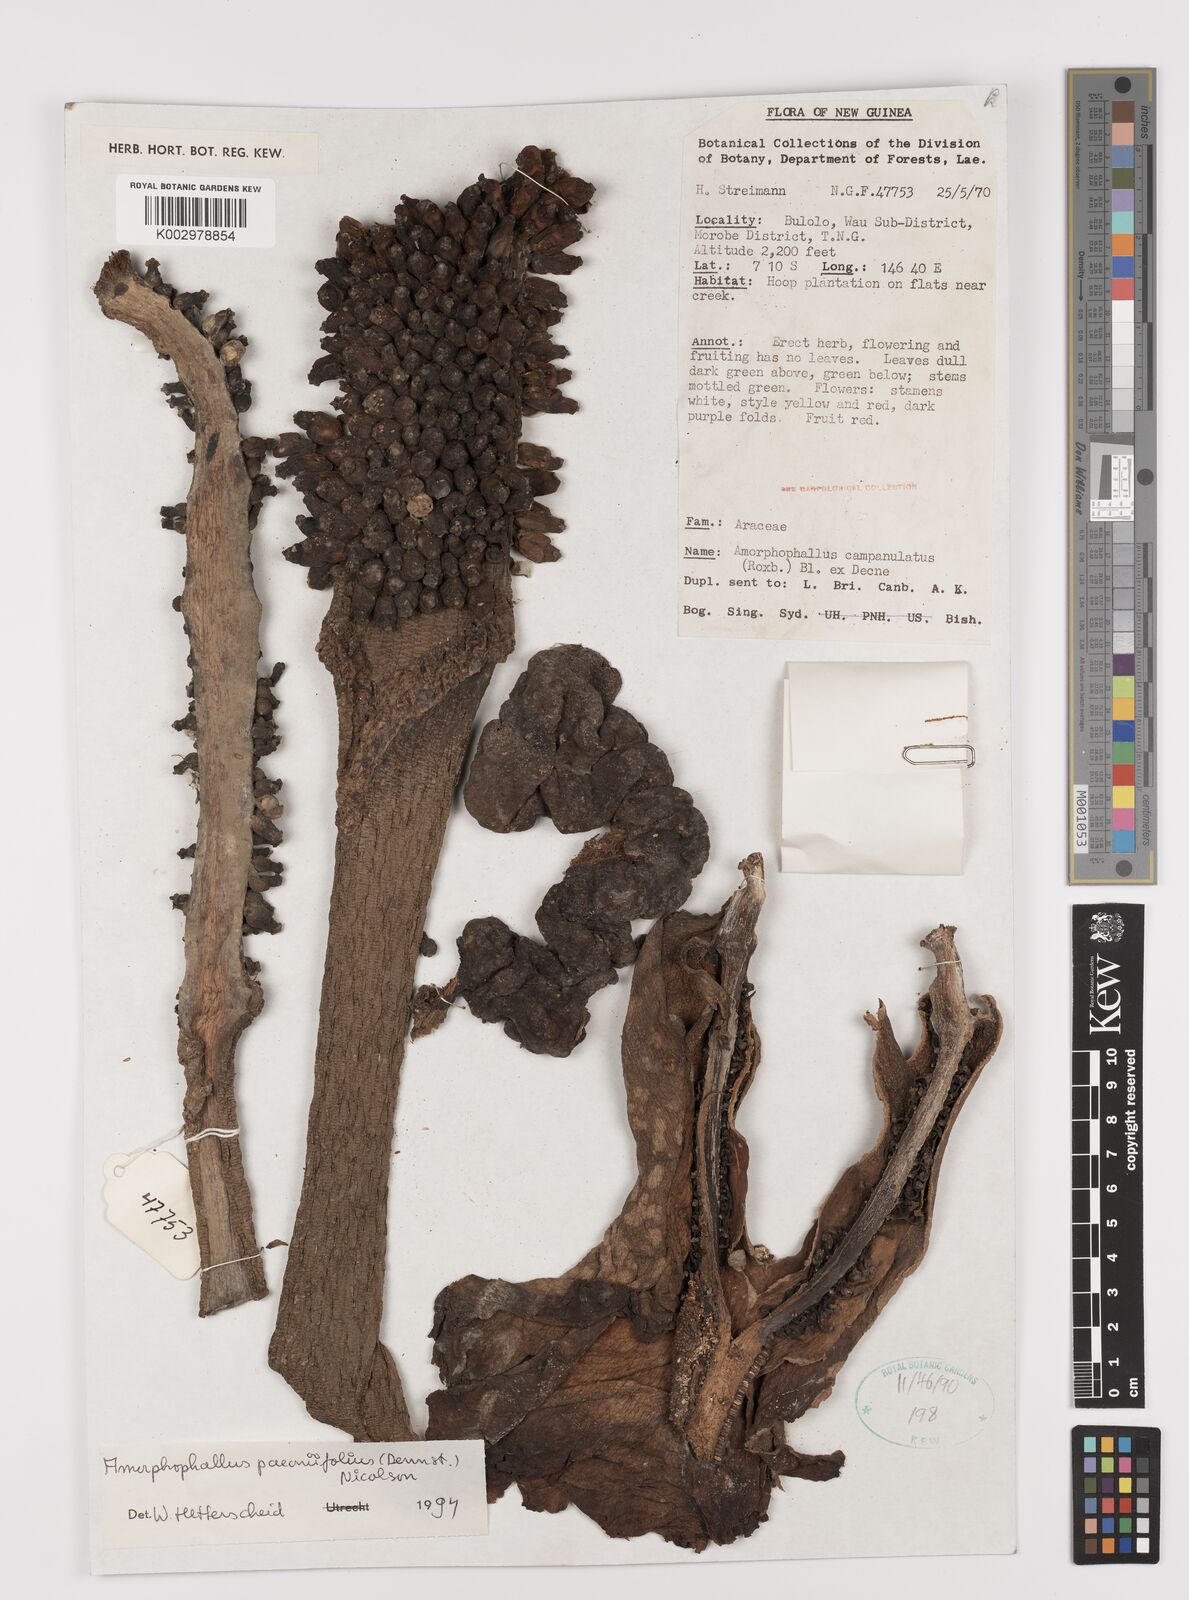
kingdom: Plantae
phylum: Tracheophyta
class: Liliopsida
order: Alismatales
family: Araceae
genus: Amorphophallus
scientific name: Amorphophallus paeoniifolius
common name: Telinga-potato
